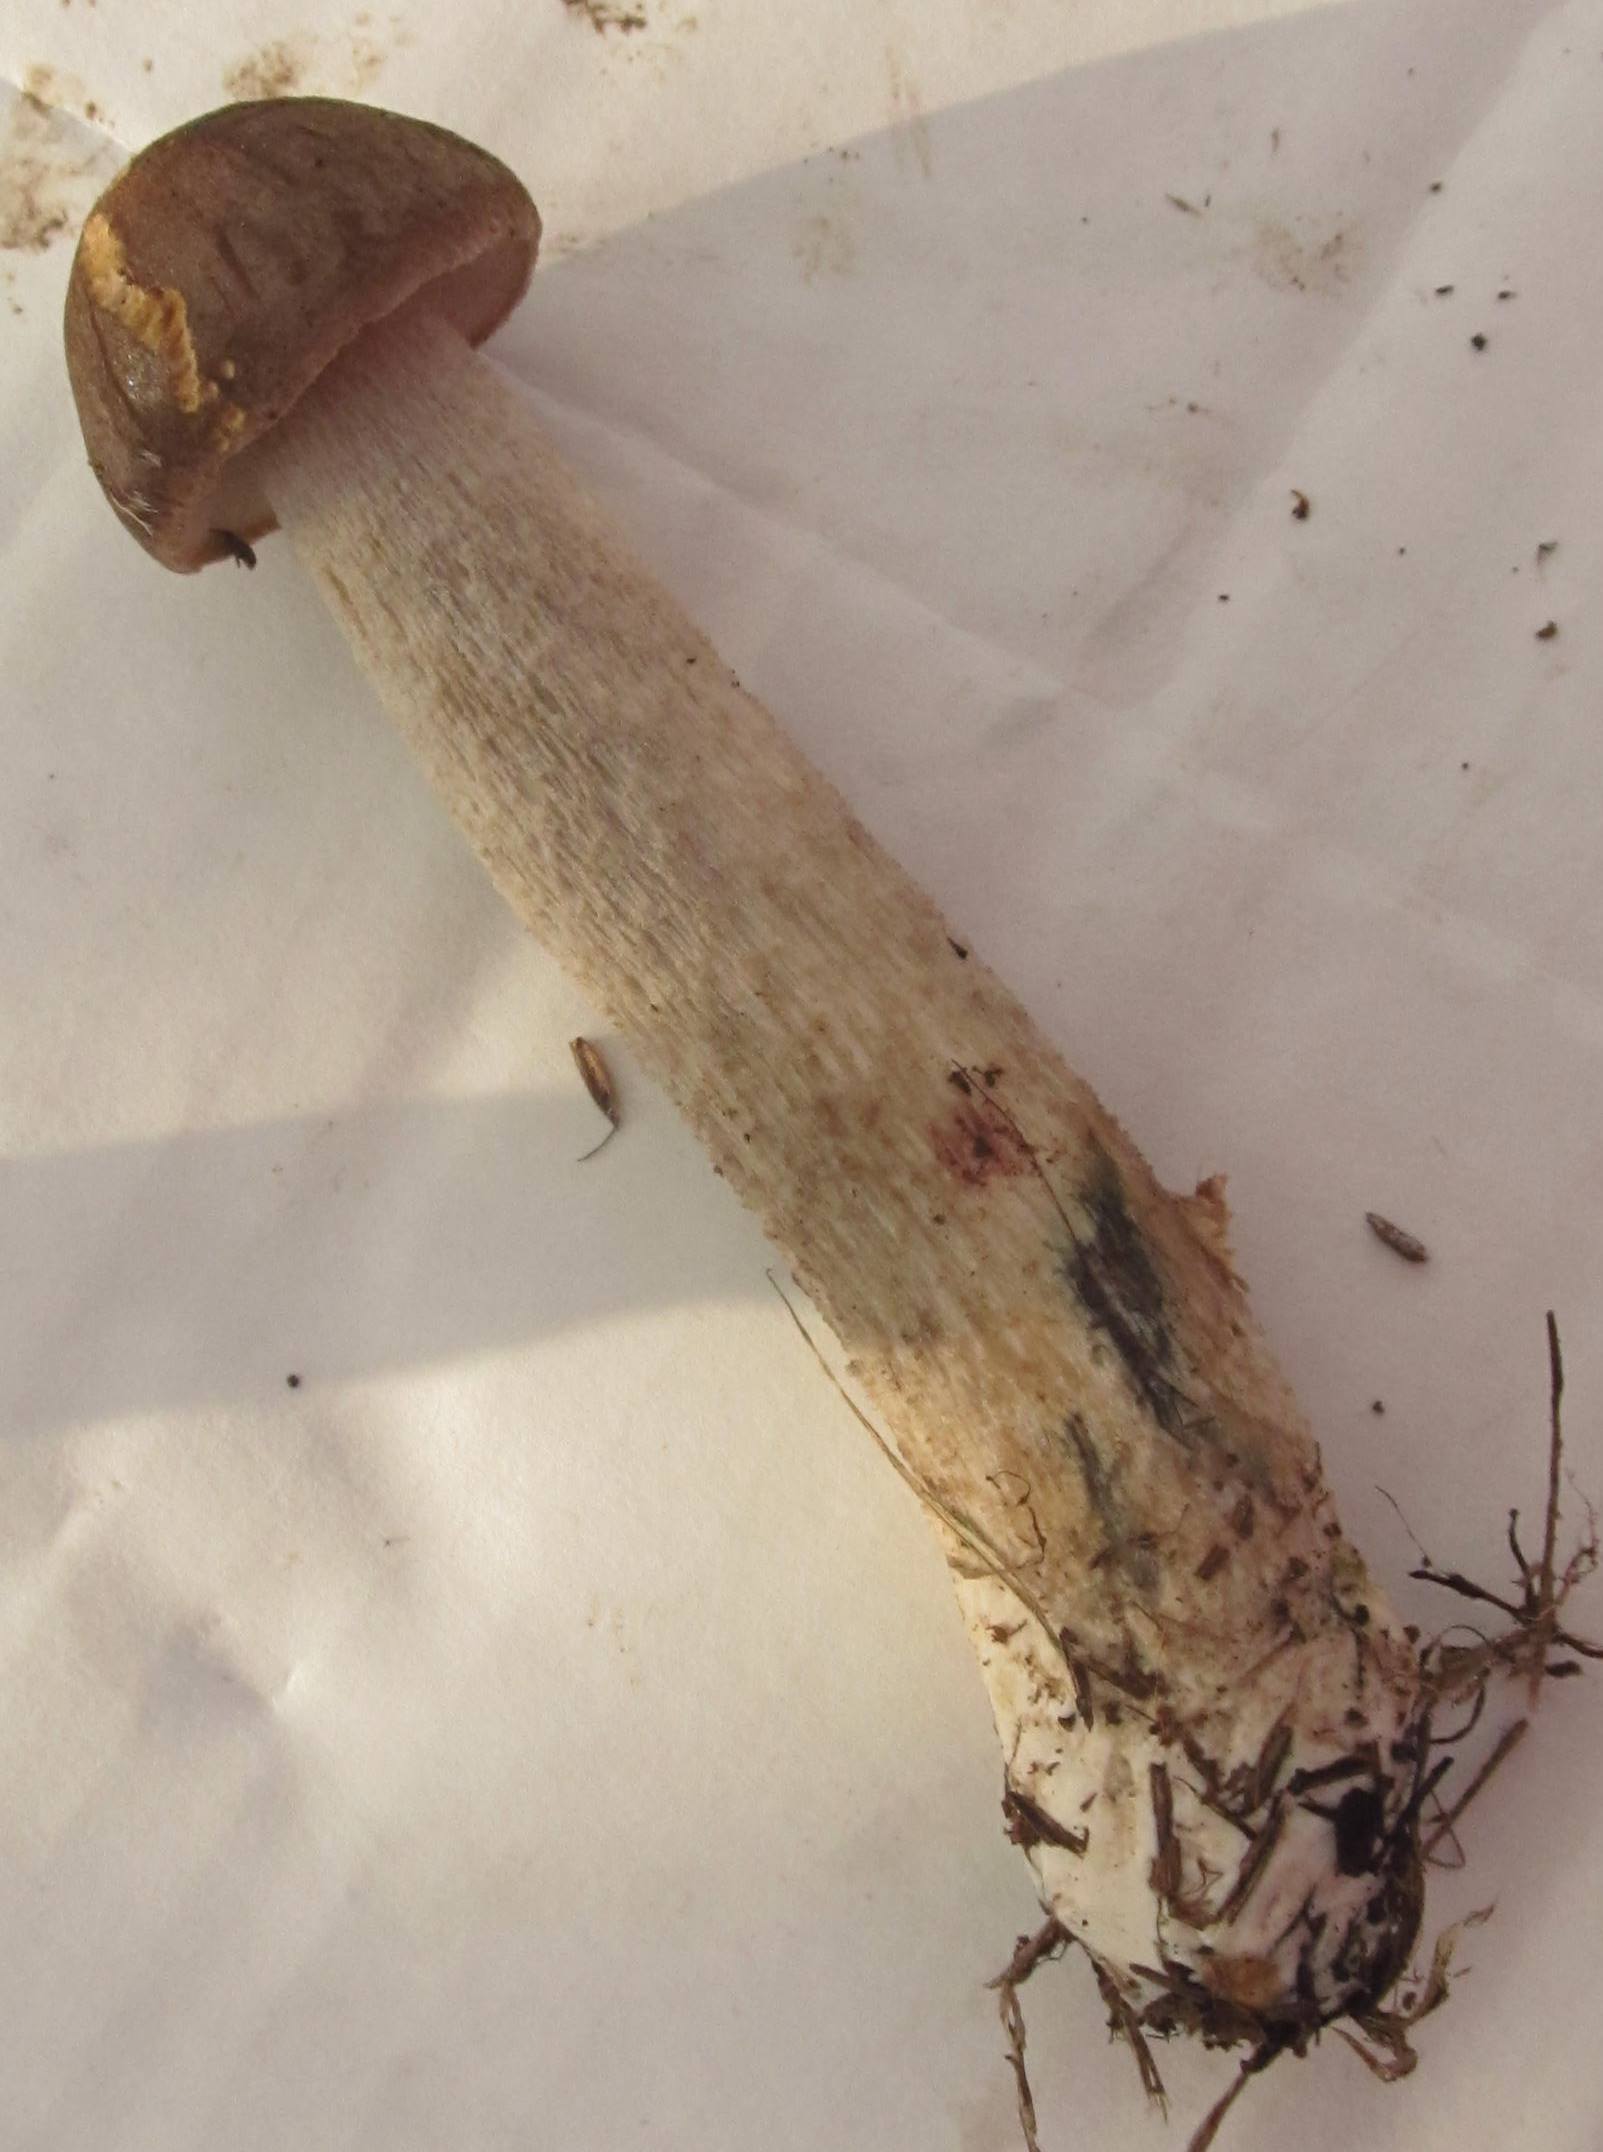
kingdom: Fungi
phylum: Basidiomycota
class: Agaricomycetes
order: Boletales
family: Boletaceae
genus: Leccinum
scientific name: Leccinum cyaneobasileucum
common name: almindelig skælrørhat
